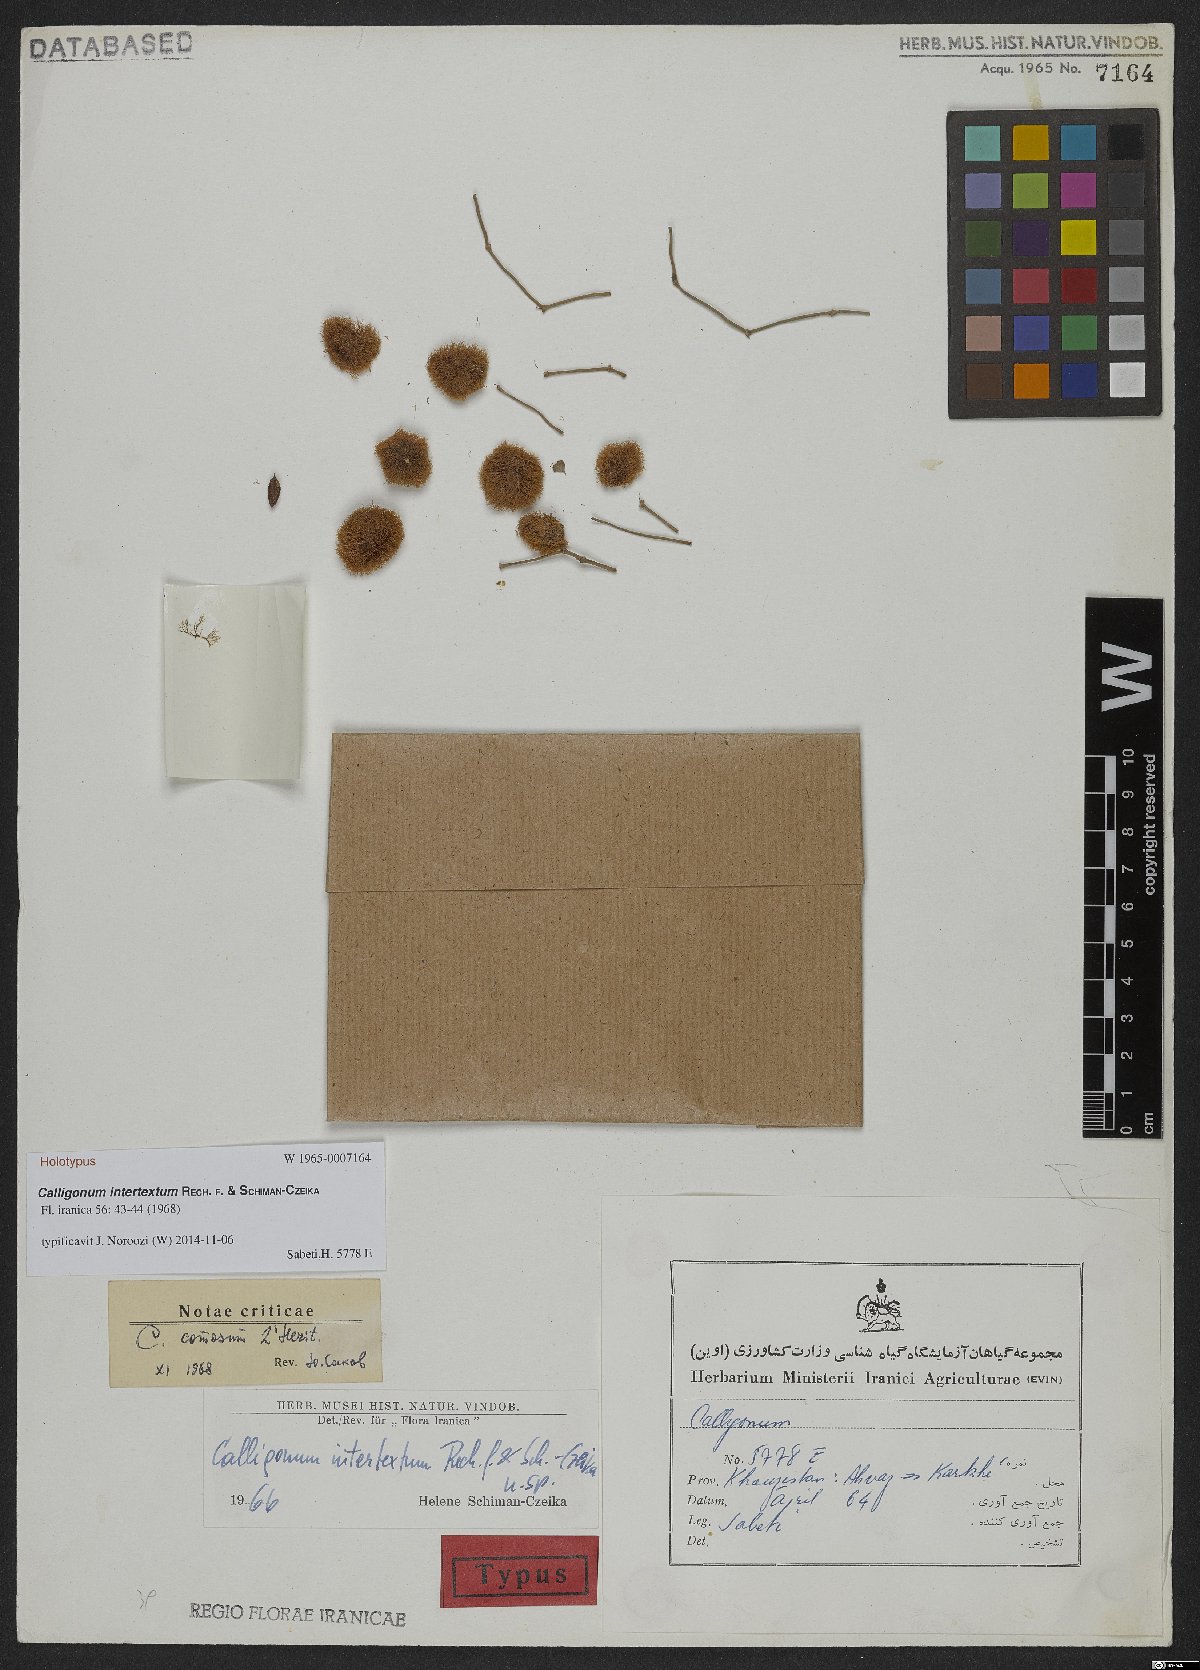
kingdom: Plantae
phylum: Tracheophyta
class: Magnoliopsida
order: Caryophyllales
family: Polygonaceae
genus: Calligonum
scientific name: Calligonum polygonoides
